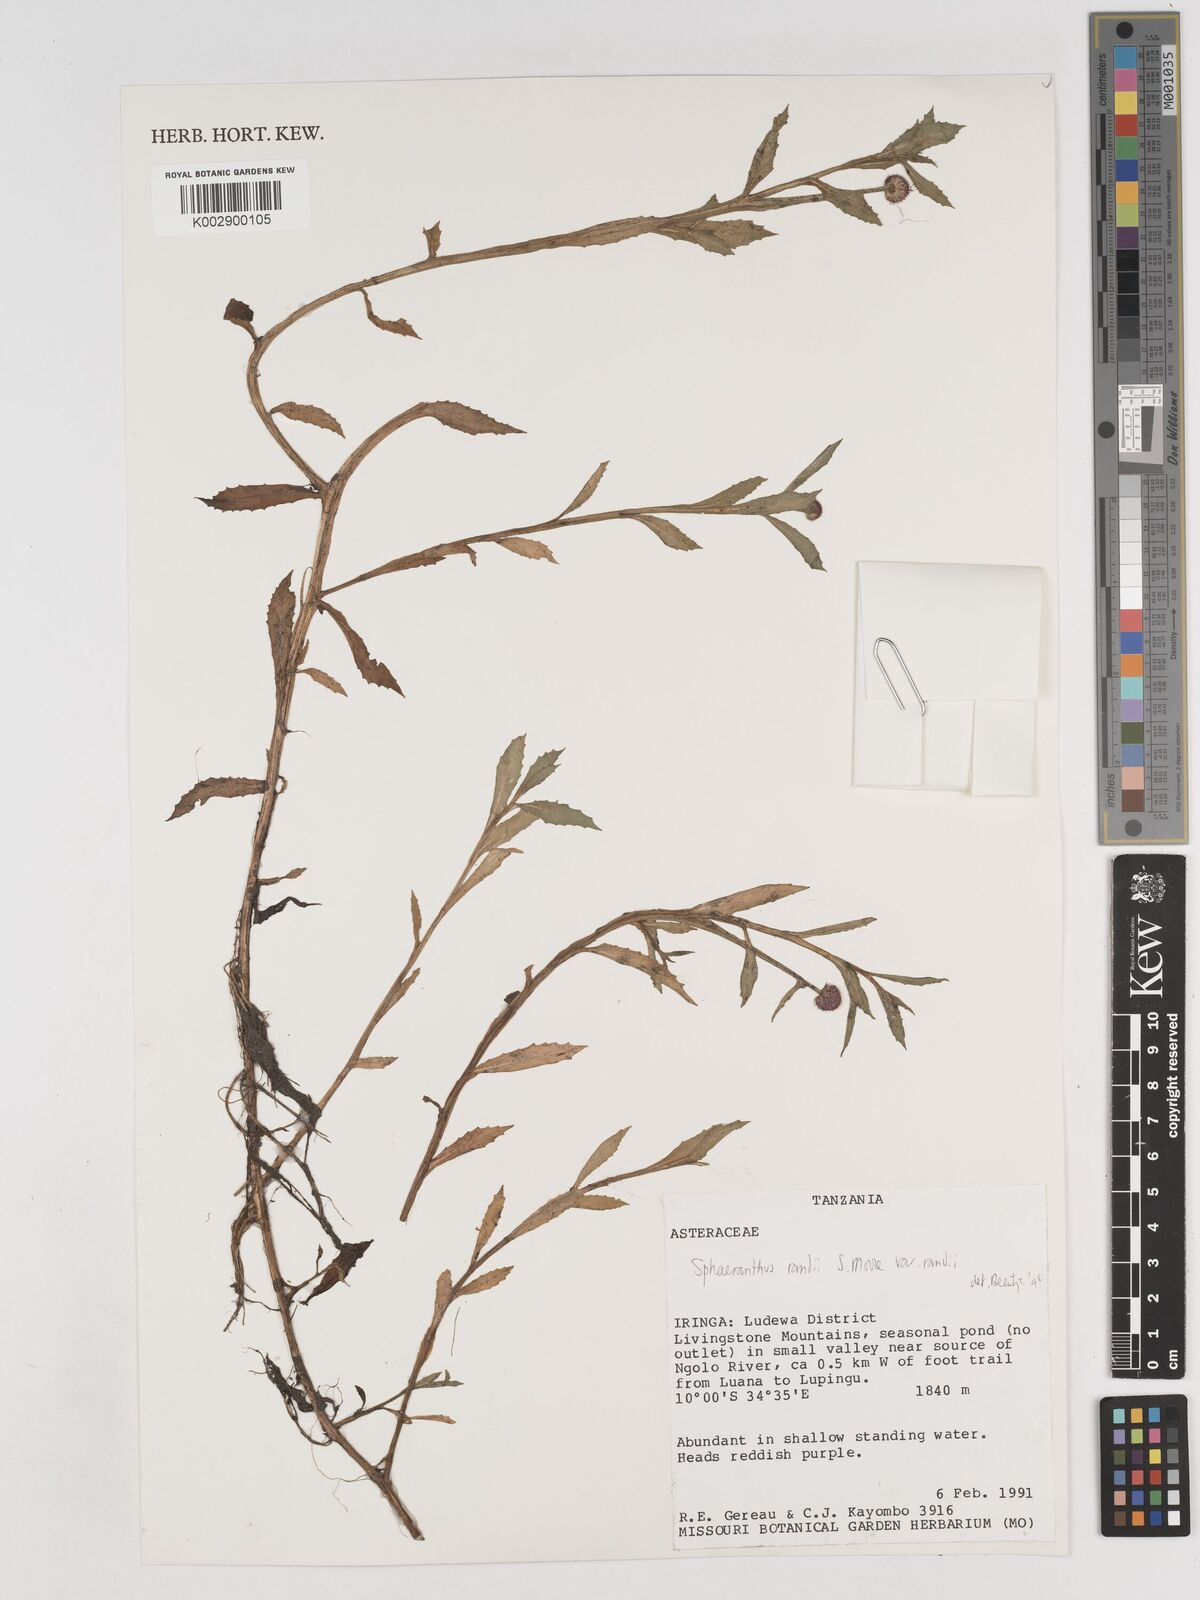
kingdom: Plantae
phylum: Tracheophyta
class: Magnoliopsida
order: Asterales
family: Asteraceae
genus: Sphaeranthus
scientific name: Sphaeranthus randii
